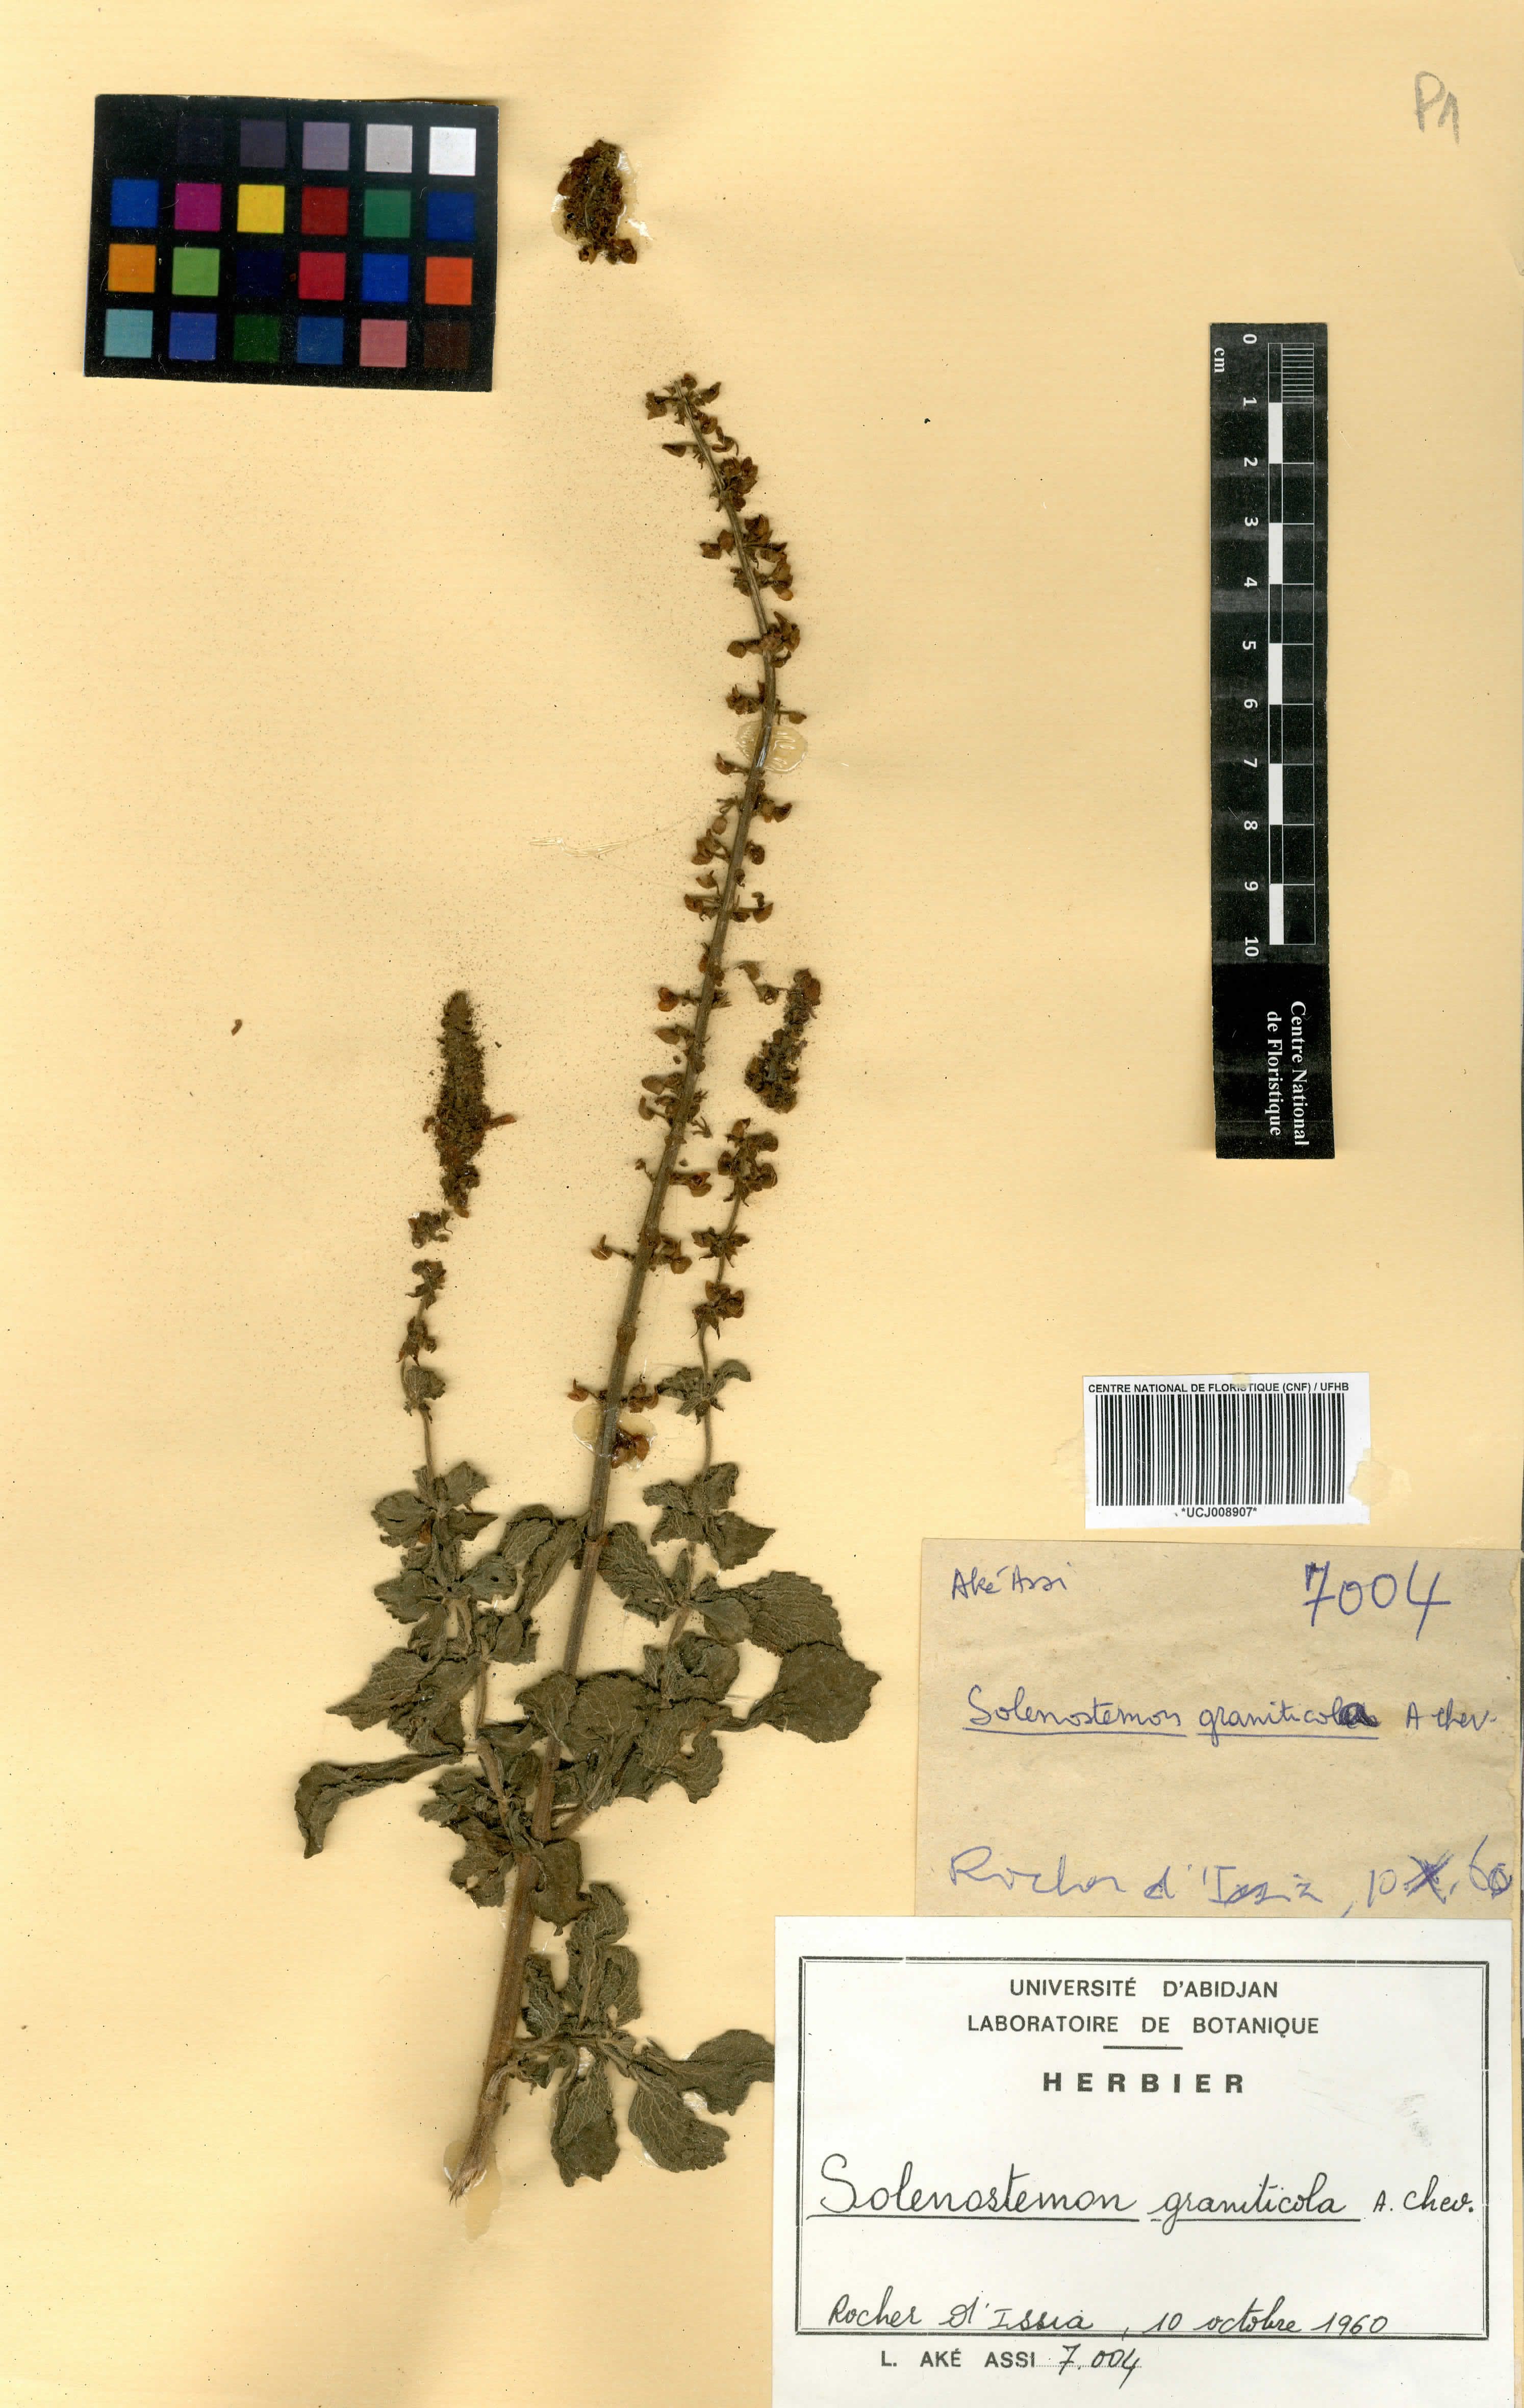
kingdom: Plantae
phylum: Tracheophyta
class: Magnoliopsida
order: Lamiales
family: Lamiaceae
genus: Coleus
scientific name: Coleus graniticola
